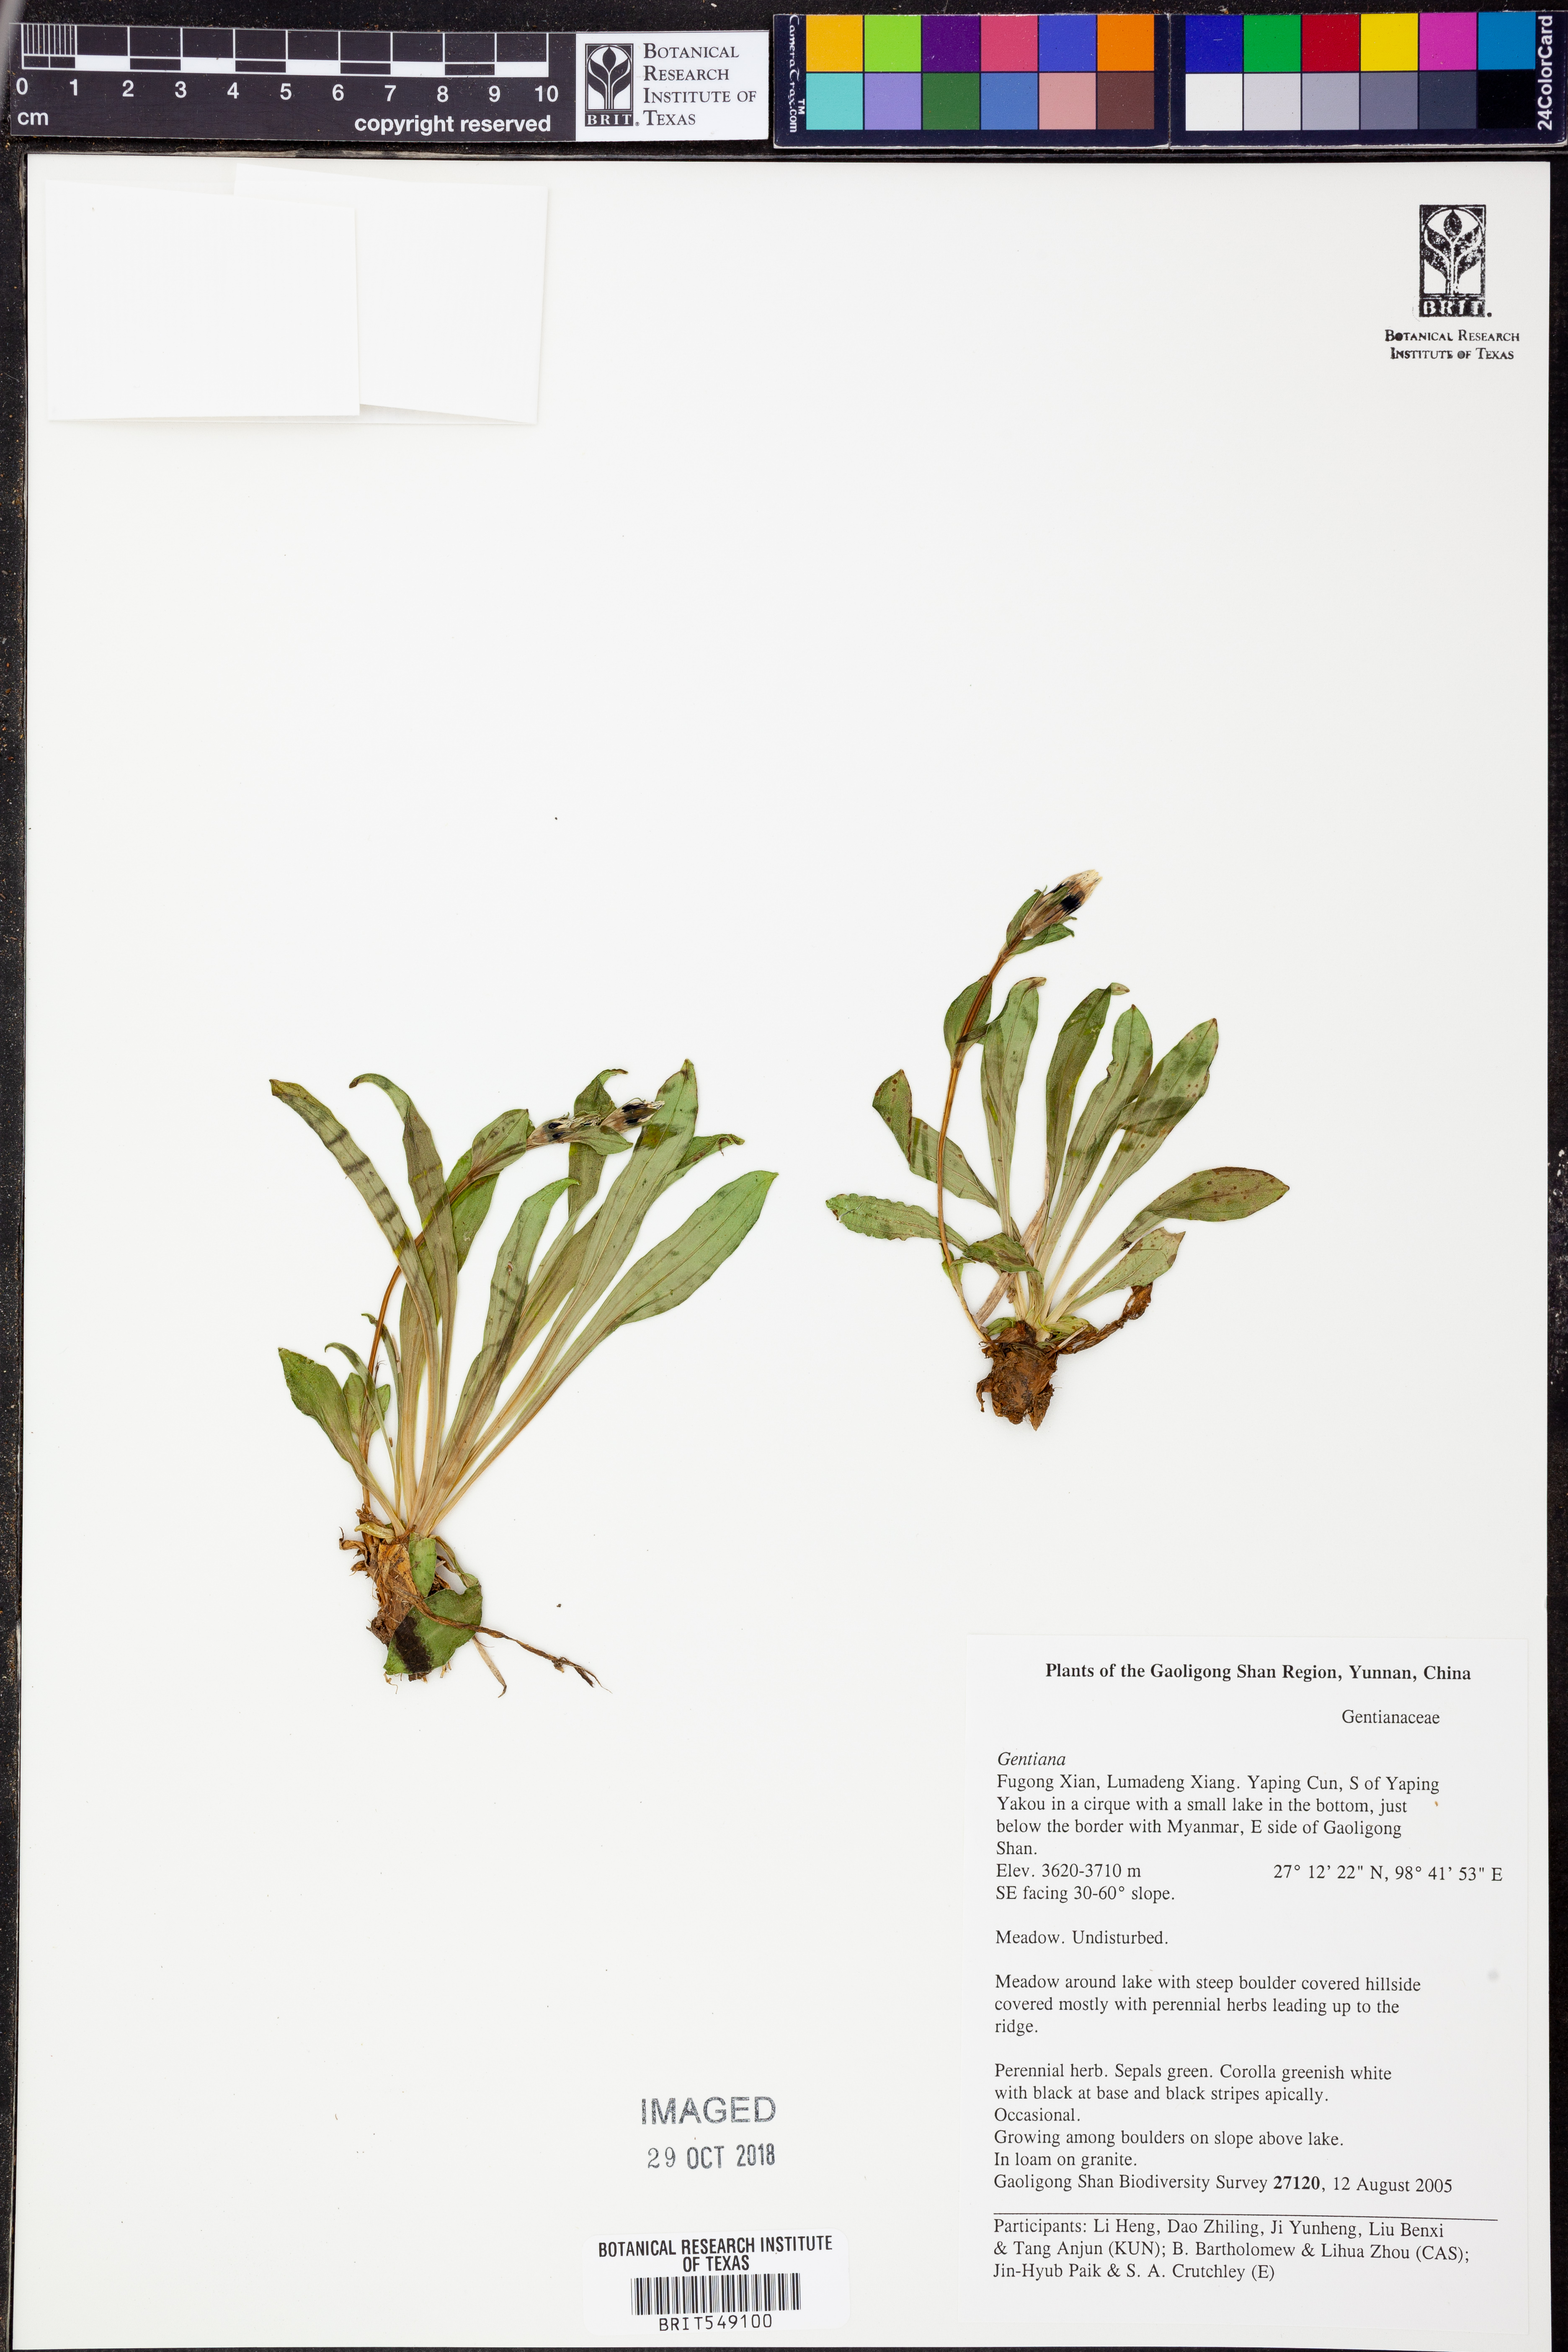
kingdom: Plantae
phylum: Tracheophyta
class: Magnoliopsida
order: Gentianales
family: Gentianaceae
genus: Gentiana
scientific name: Gentiana
